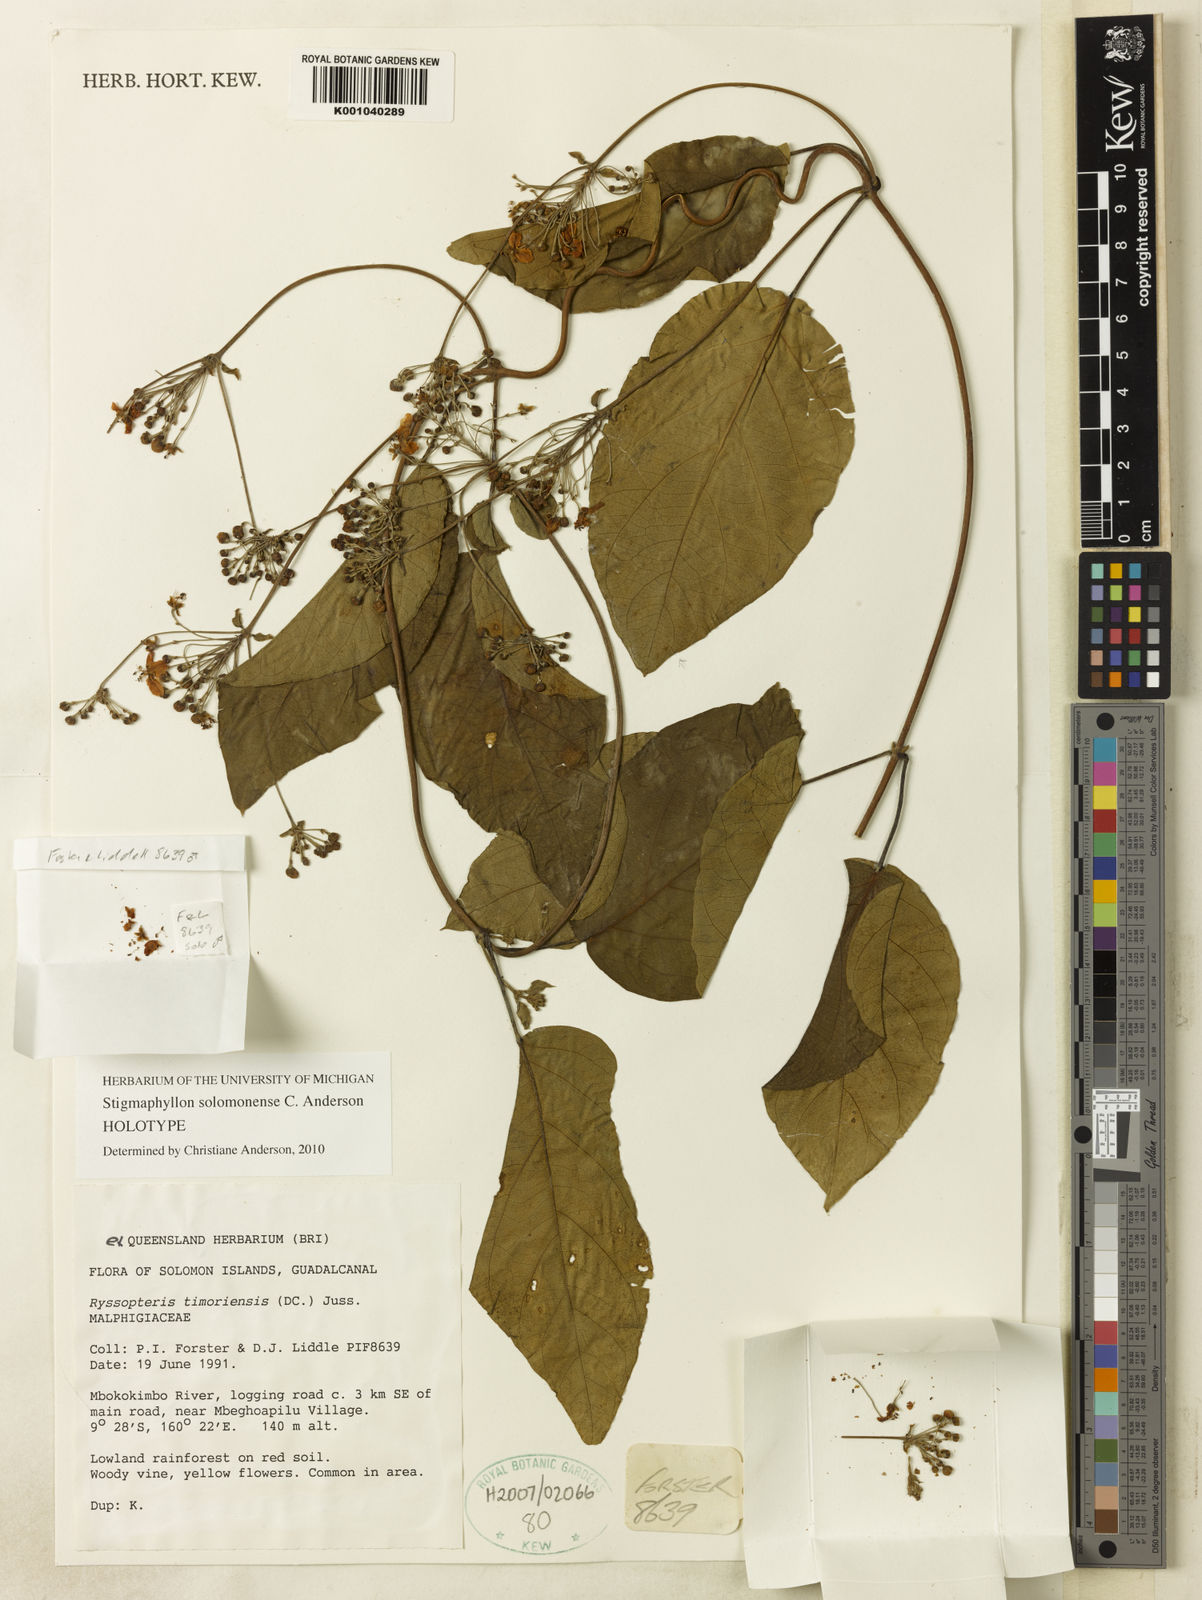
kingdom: Plantae
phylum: Tracheophyta
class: Magnoliopsida
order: Malpighiales
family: Malpighiaceae
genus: Stigmaphyllon
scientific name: Stigmaphyllon solomonense
